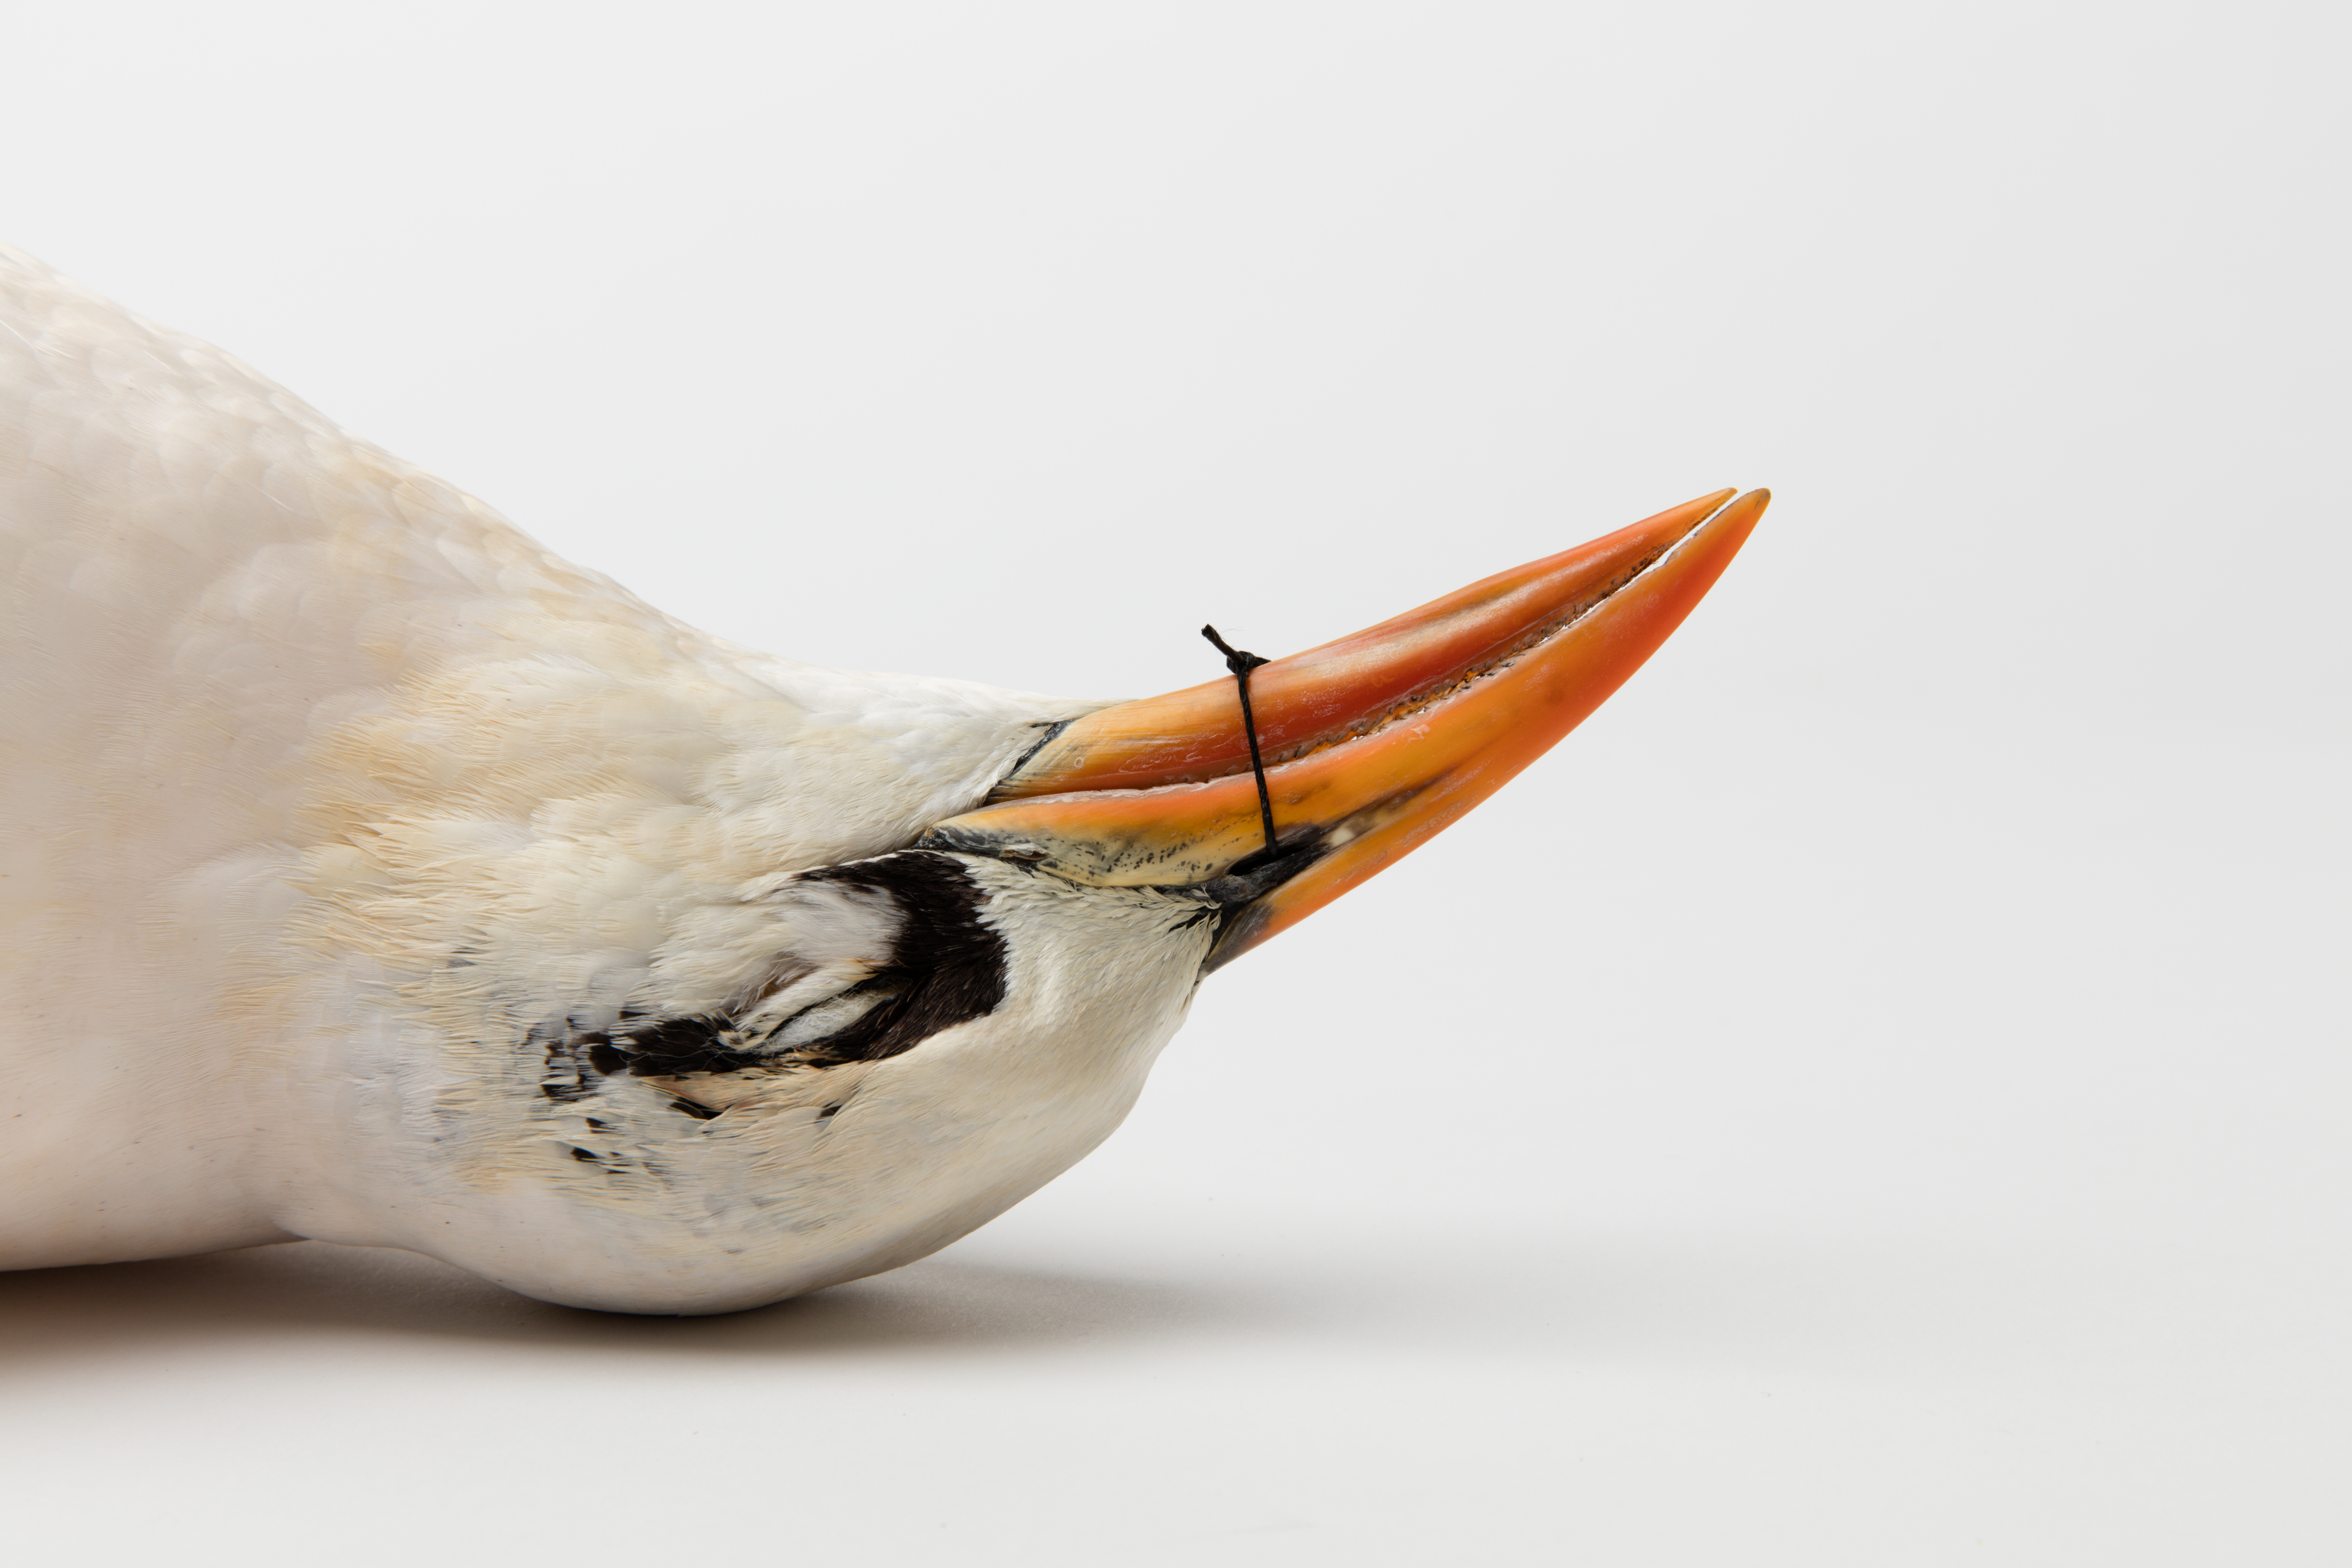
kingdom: Animalia
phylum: Chordata
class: Aves
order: Phaethontiformes
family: Phaethontidae
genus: Phaethon
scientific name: Phaethon rubricauda
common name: Red-tailed tropicbird
